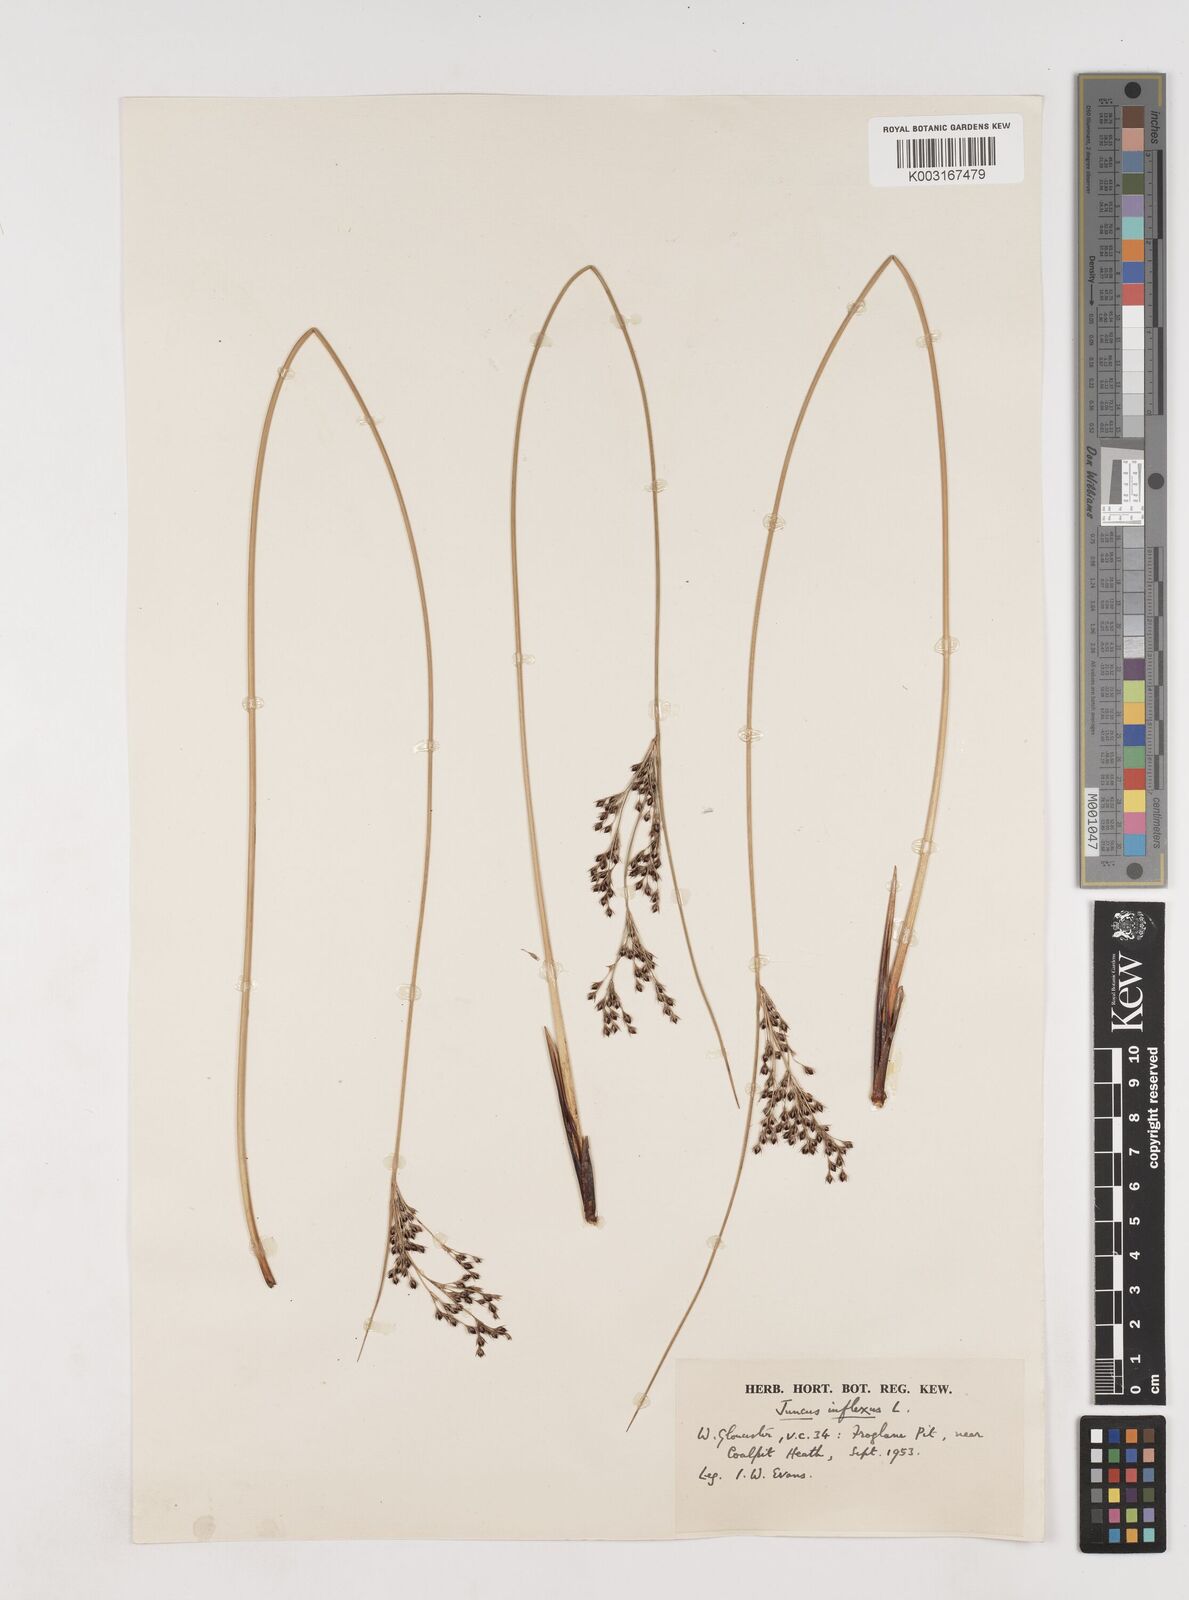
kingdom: Plantae
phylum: Tracheophyta
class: Liliopsida
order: Poales
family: Juncaceae
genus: Juncus
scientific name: Juncus inflexus
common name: Hard rush
